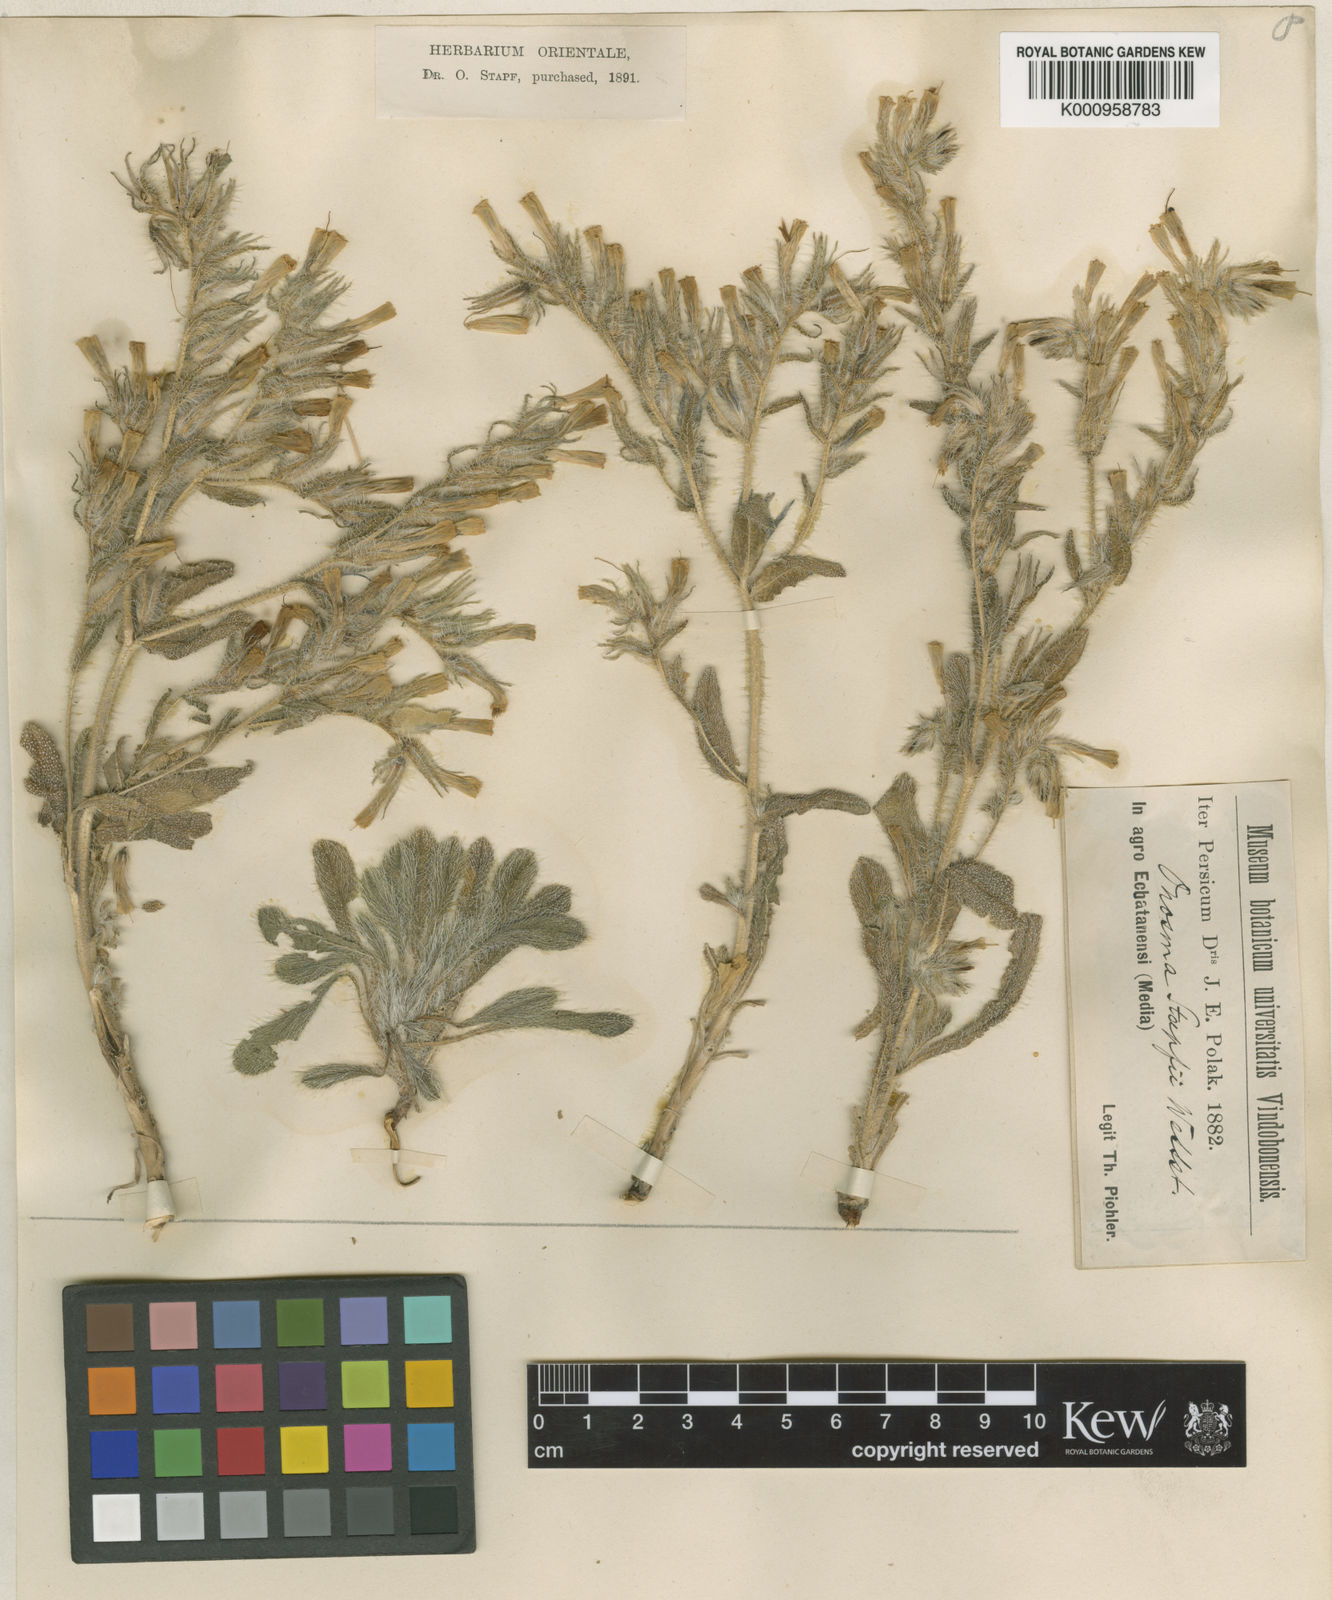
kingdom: Plantae
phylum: Tracheophyta
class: Magnoliopsida
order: Boraginales
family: Boraginaceae
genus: Onosma
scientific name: Onosma microcarpa
